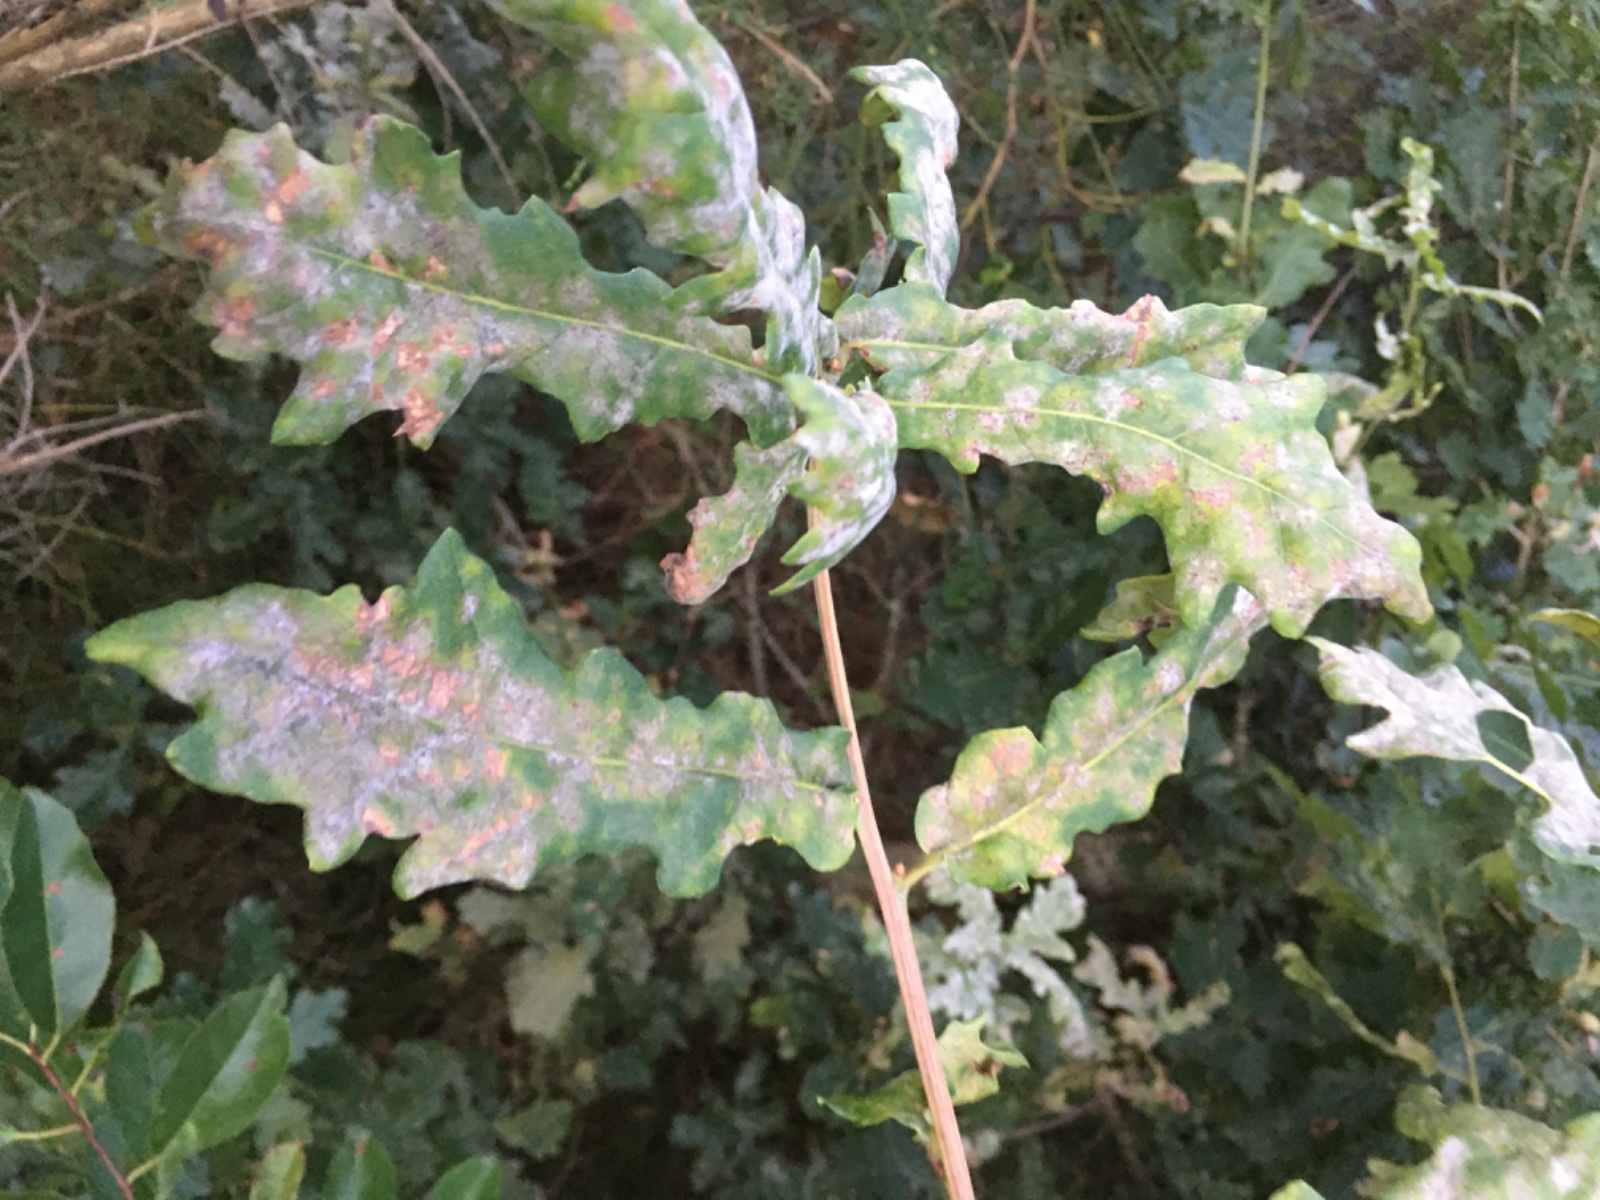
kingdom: Fungi
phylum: Ascomycota
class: Leotiomycetes
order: Helotiales
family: Erysiphaceae
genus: Erysiphe
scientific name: Erysiphe alphitoides
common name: ege-meldug
